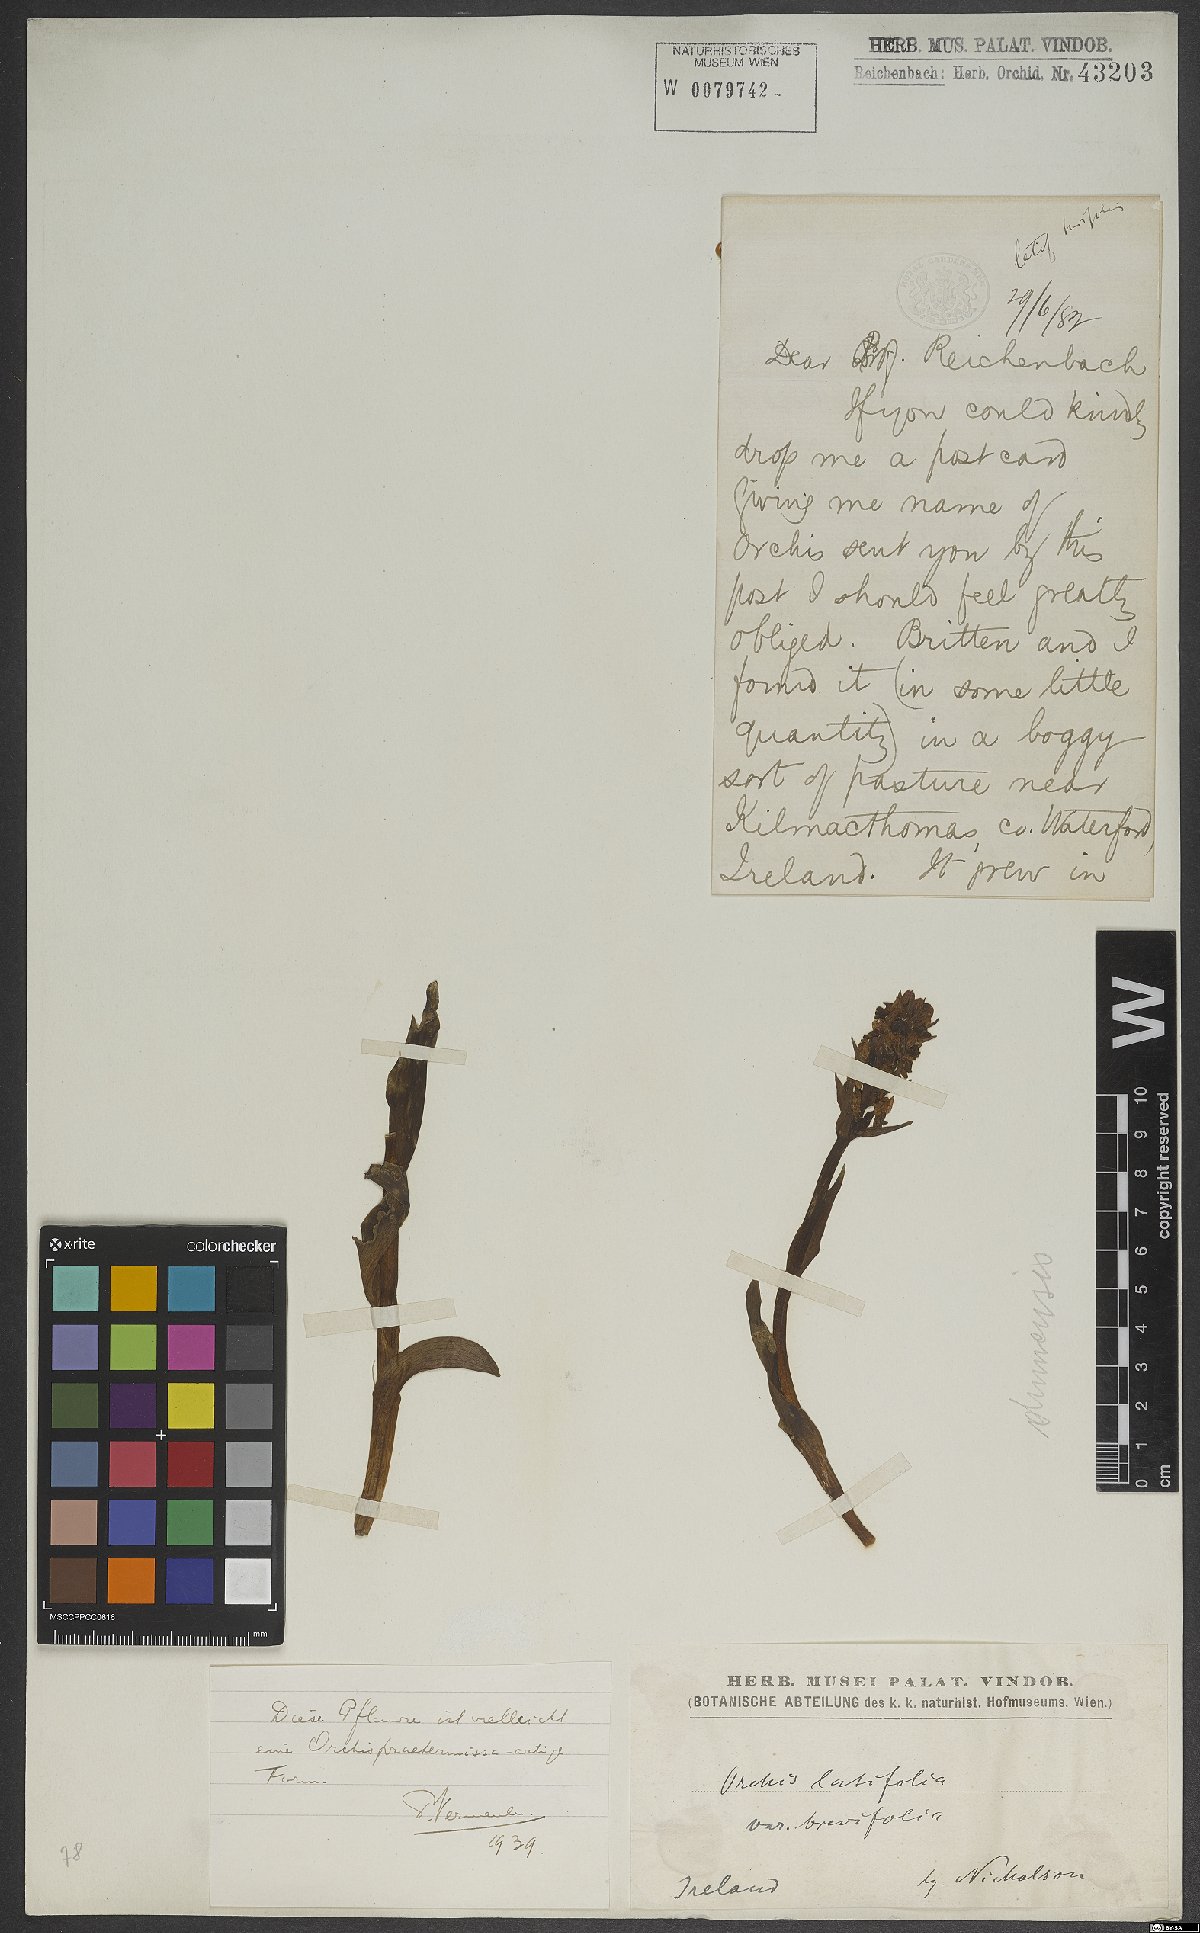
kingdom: Plantae
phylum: Tracheophyta
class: Liliopsida
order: Asparagales
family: Orchidaceae
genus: Dactylorhiza
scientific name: Dactylorhiza majalis
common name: Marsh orchid
